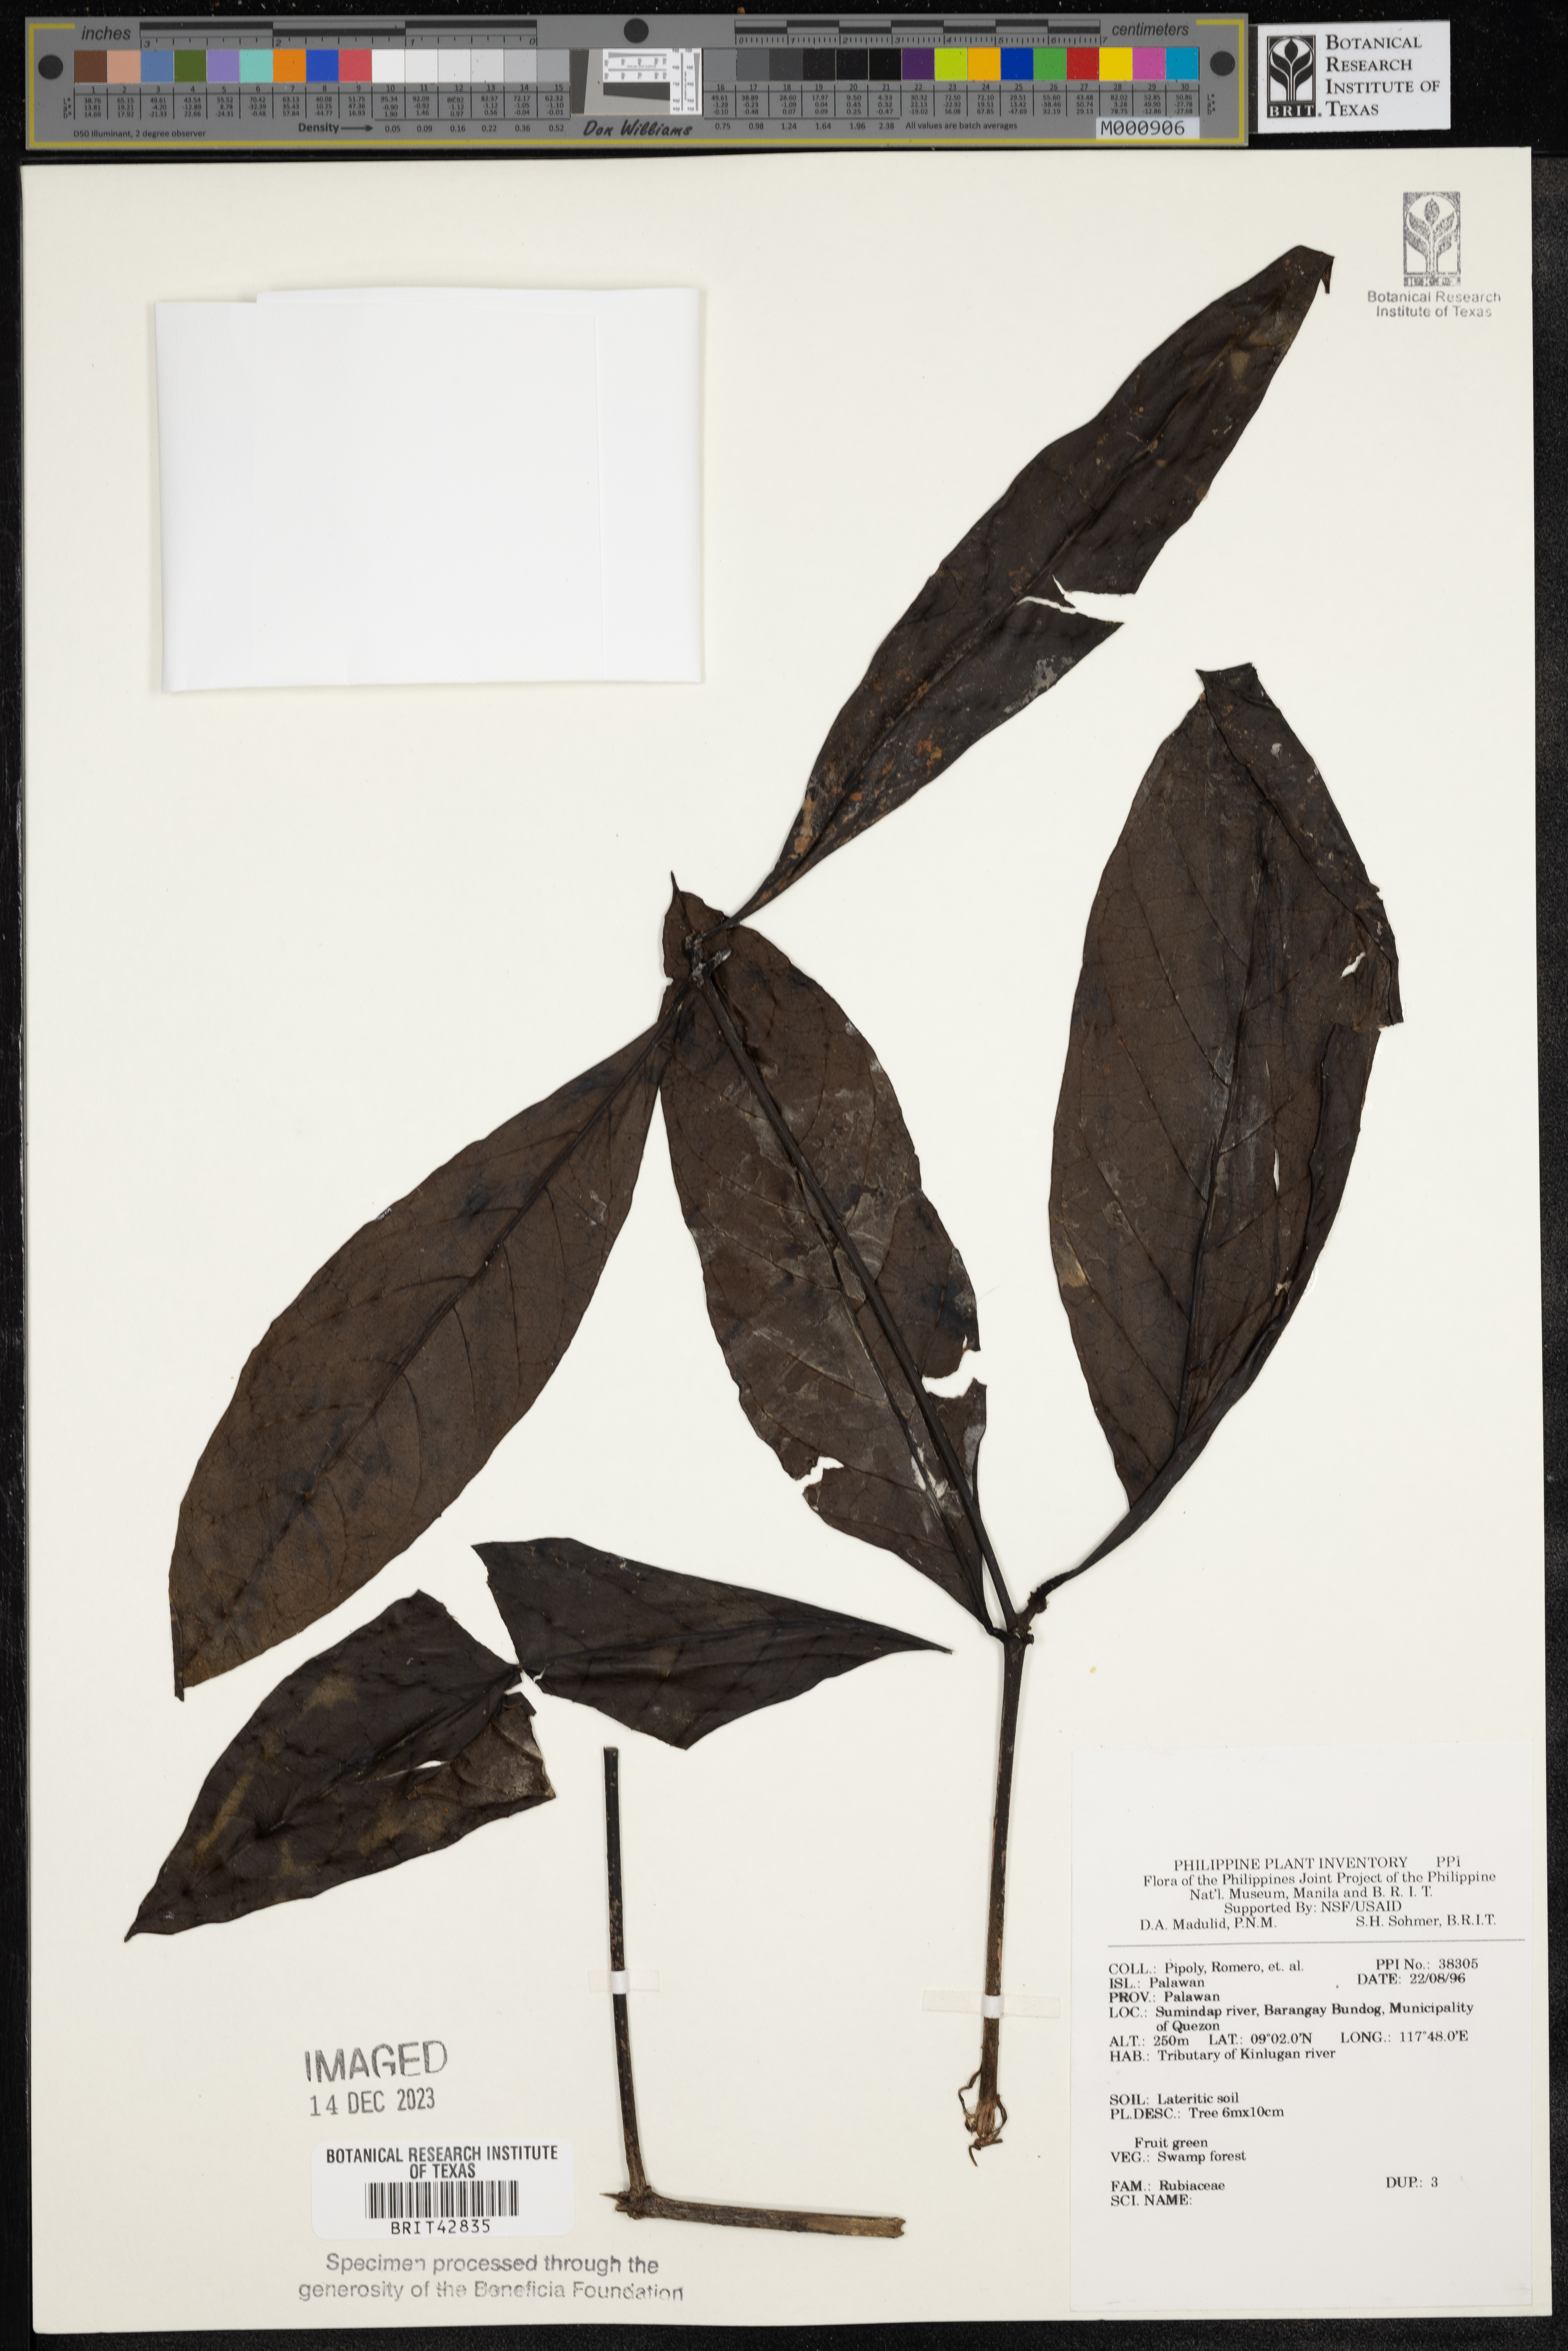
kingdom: Plantae
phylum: Tracheophyta
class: Magnoliopsida
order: Gentianales
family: Rubiaceae
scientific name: Rubiaceae
